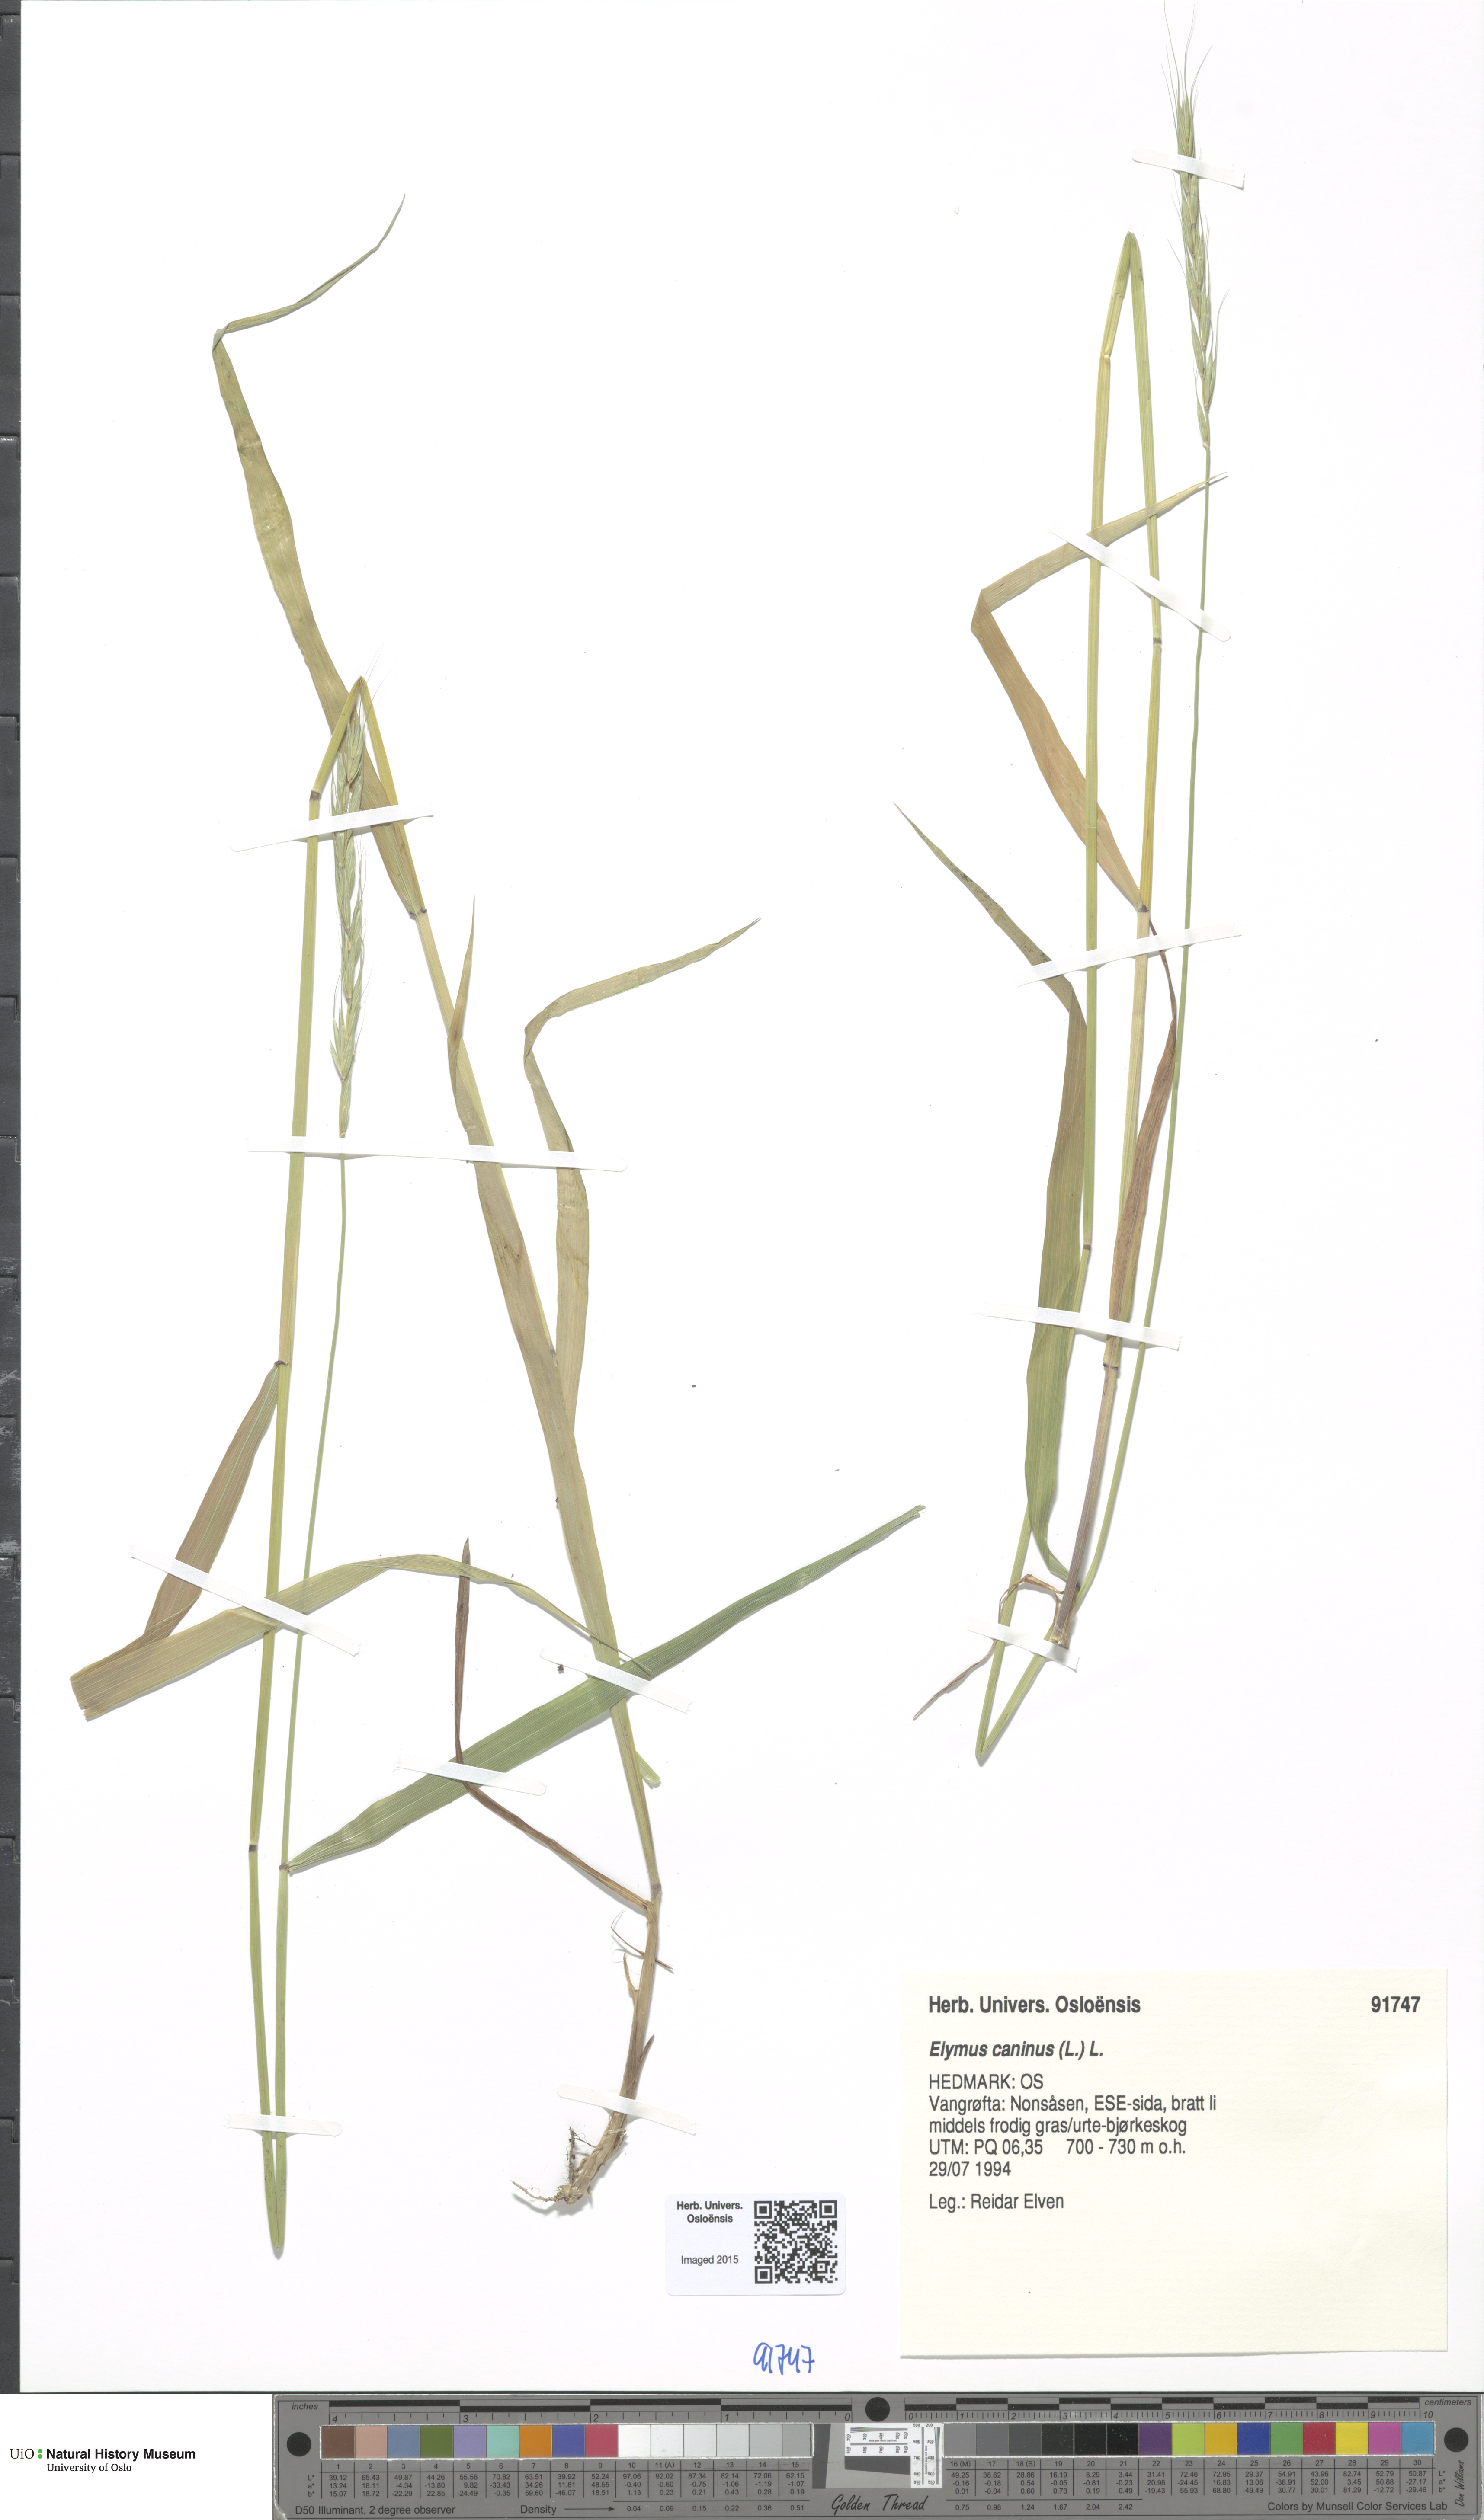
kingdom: Plantae
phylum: Tracheophyta
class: Liliopsida
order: Poales
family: Poaceae
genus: Elymus
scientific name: Elymus caninus
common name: Bearded couch
